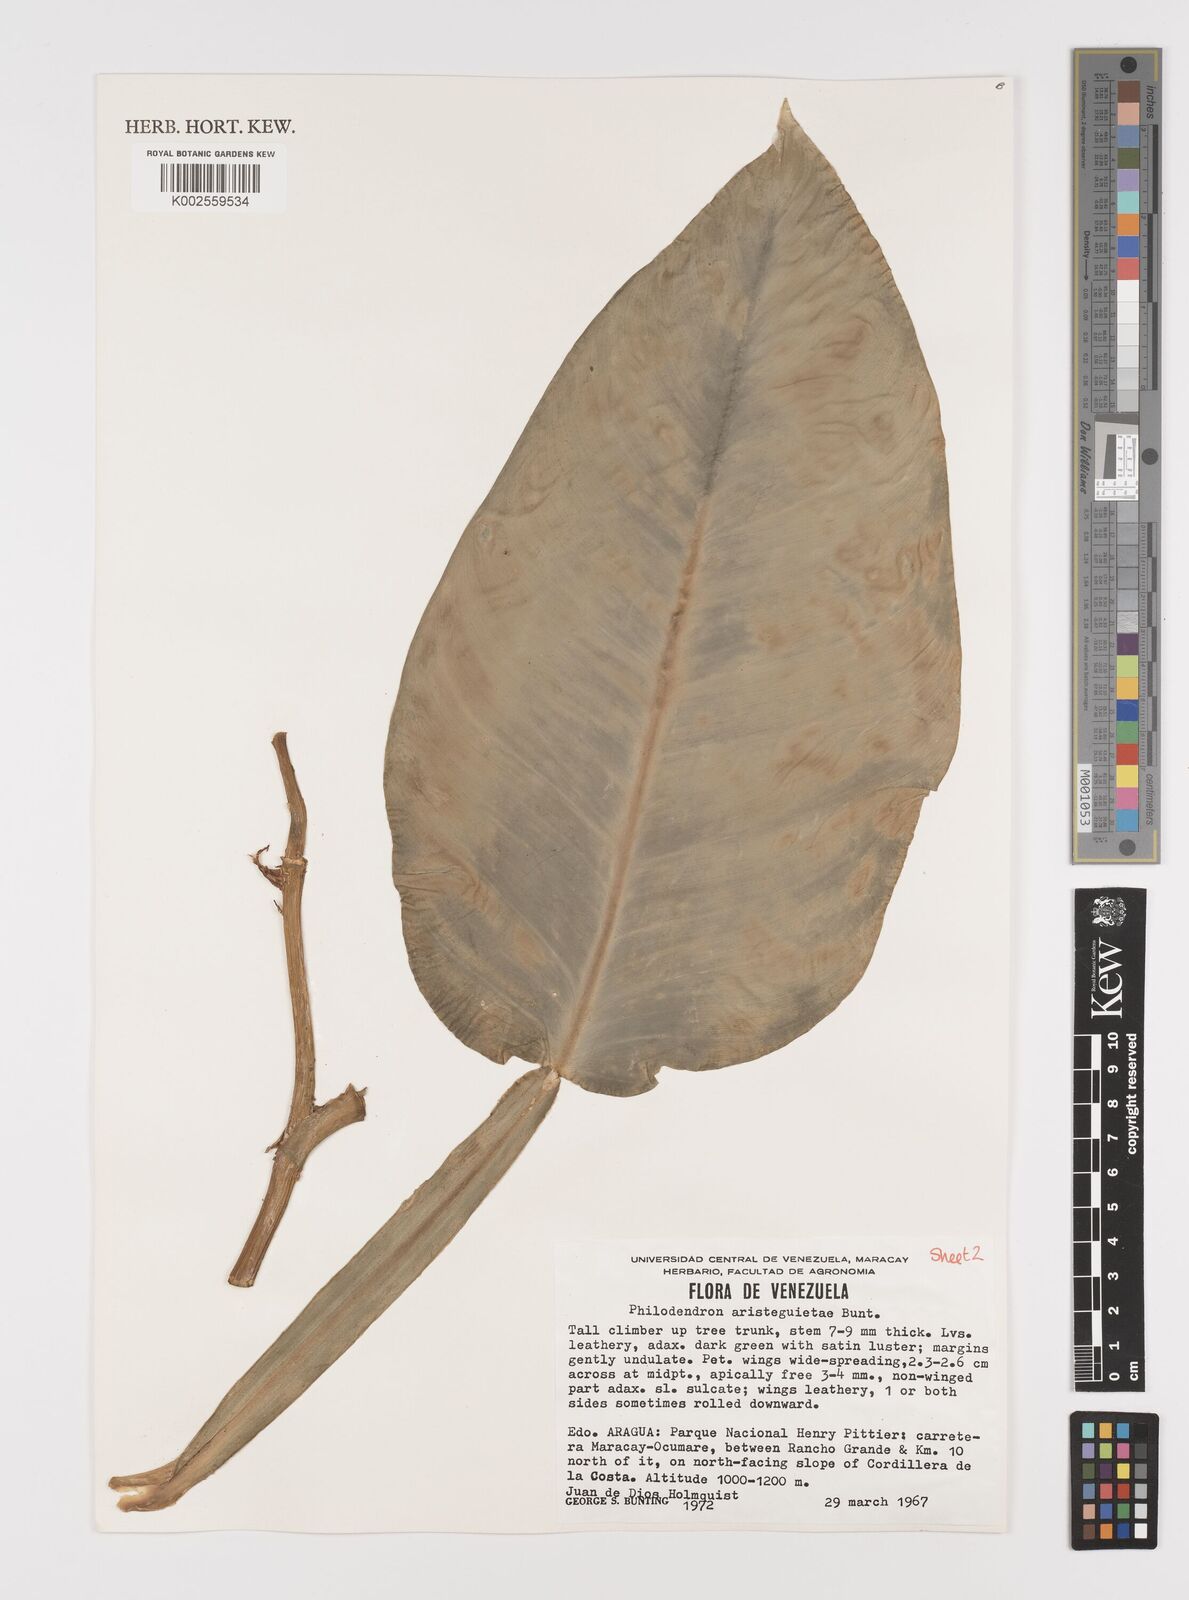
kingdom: Plantae
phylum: Tracheophyta
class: Liliopsida
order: Alismatales
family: Araceae
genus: Philodendron
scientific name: Philodendron aristeguietae
